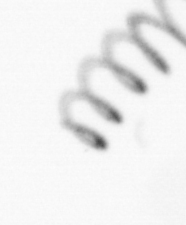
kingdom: Chromista
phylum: Ochrophyta
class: Bacillariophyceae
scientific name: Bacillariophyceae
